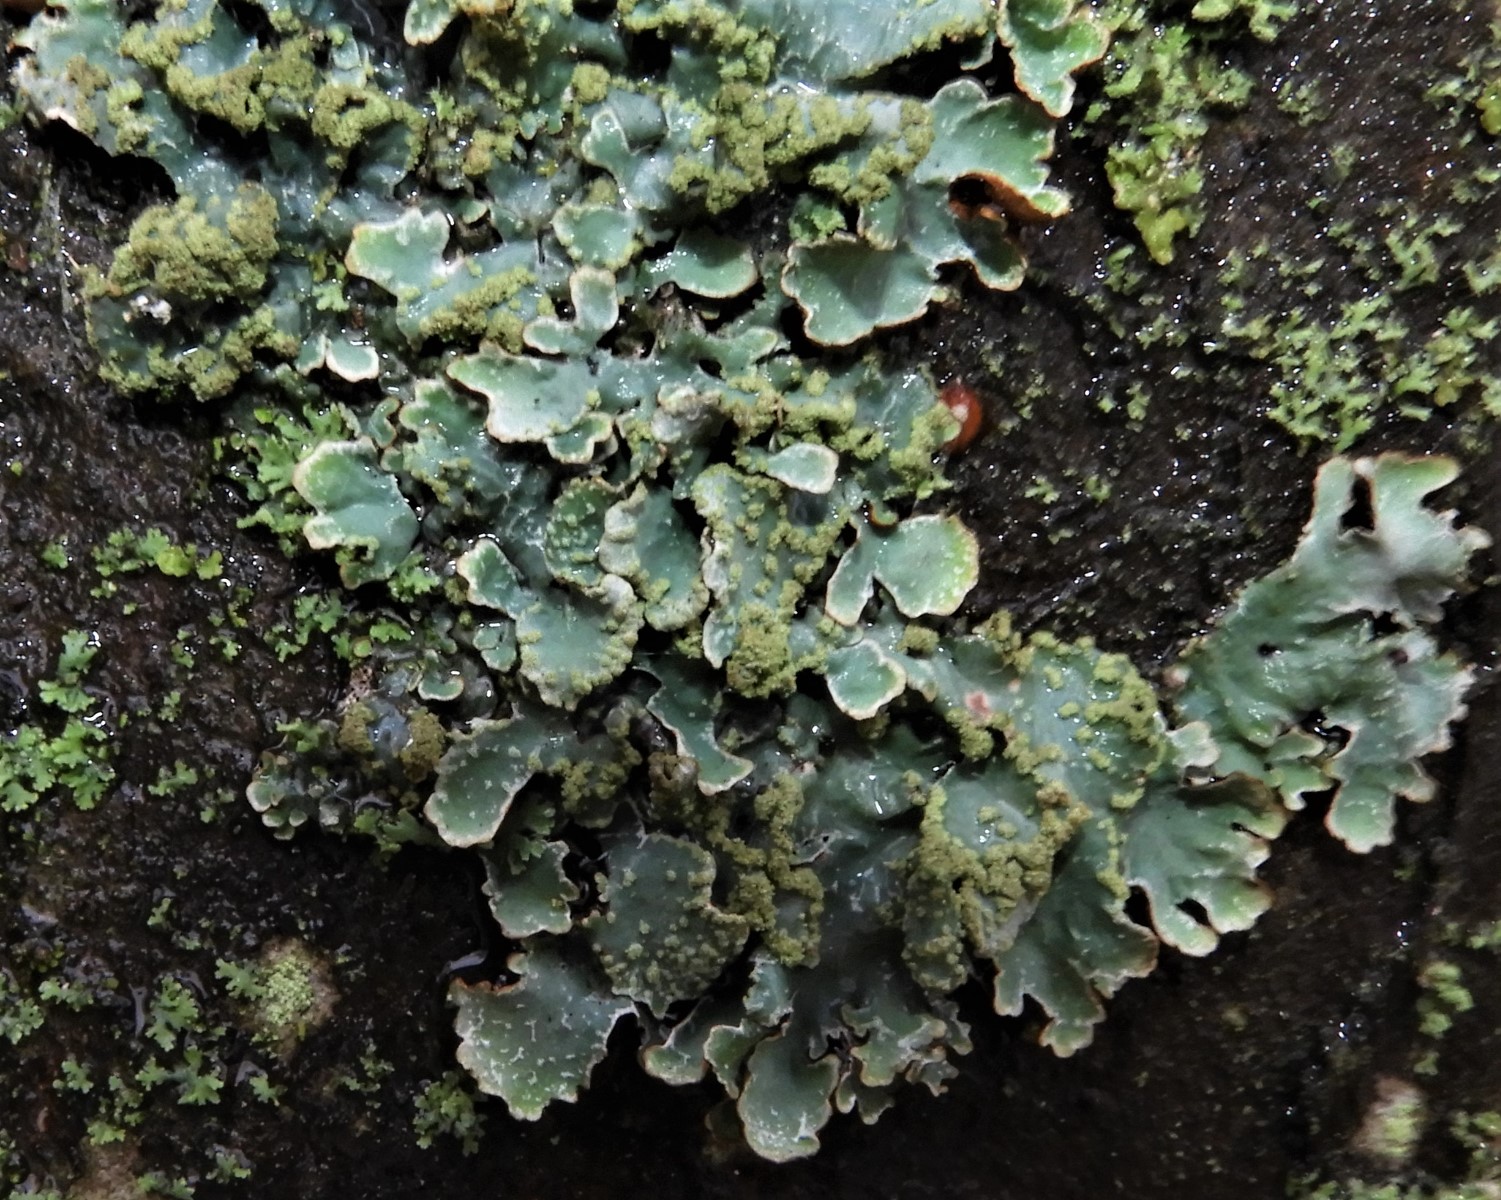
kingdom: Fungi
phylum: Ascomycota
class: Lecanoromycetes
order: Lecanorales
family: Parmeliaceae
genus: Parmelia
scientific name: Parmelia sulcata
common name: rynket skållav
